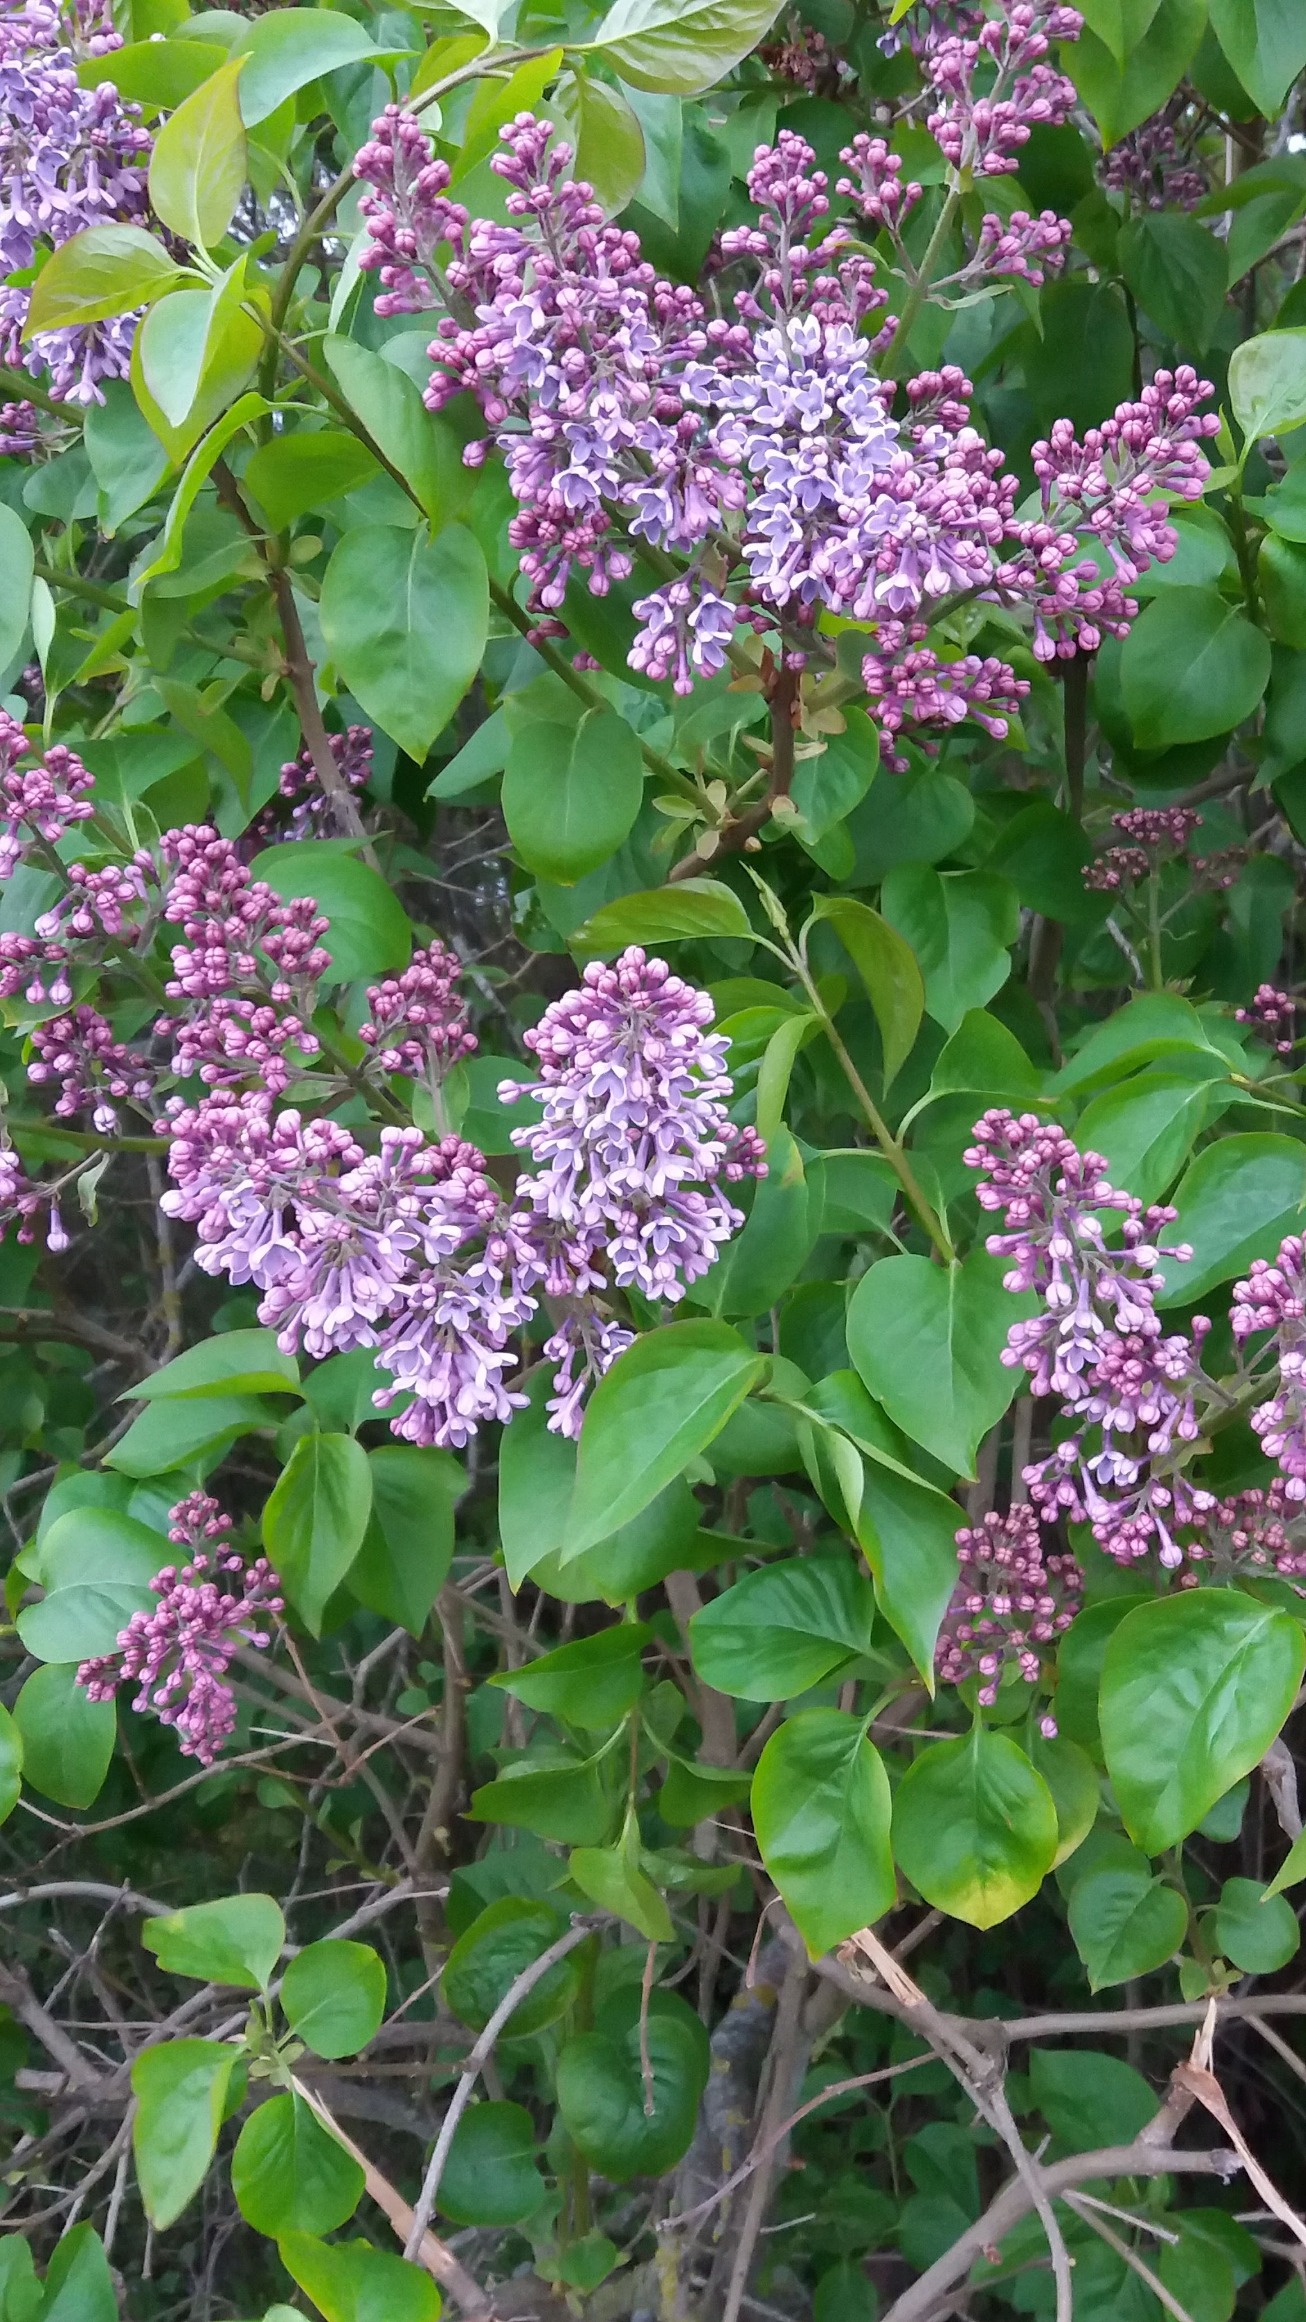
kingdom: Plantae
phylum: Tracheophyta
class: Magnoliopsida
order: Lamiales
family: Oleaceae
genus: Syringa
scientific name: Syringa vulgaris
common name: Syren
